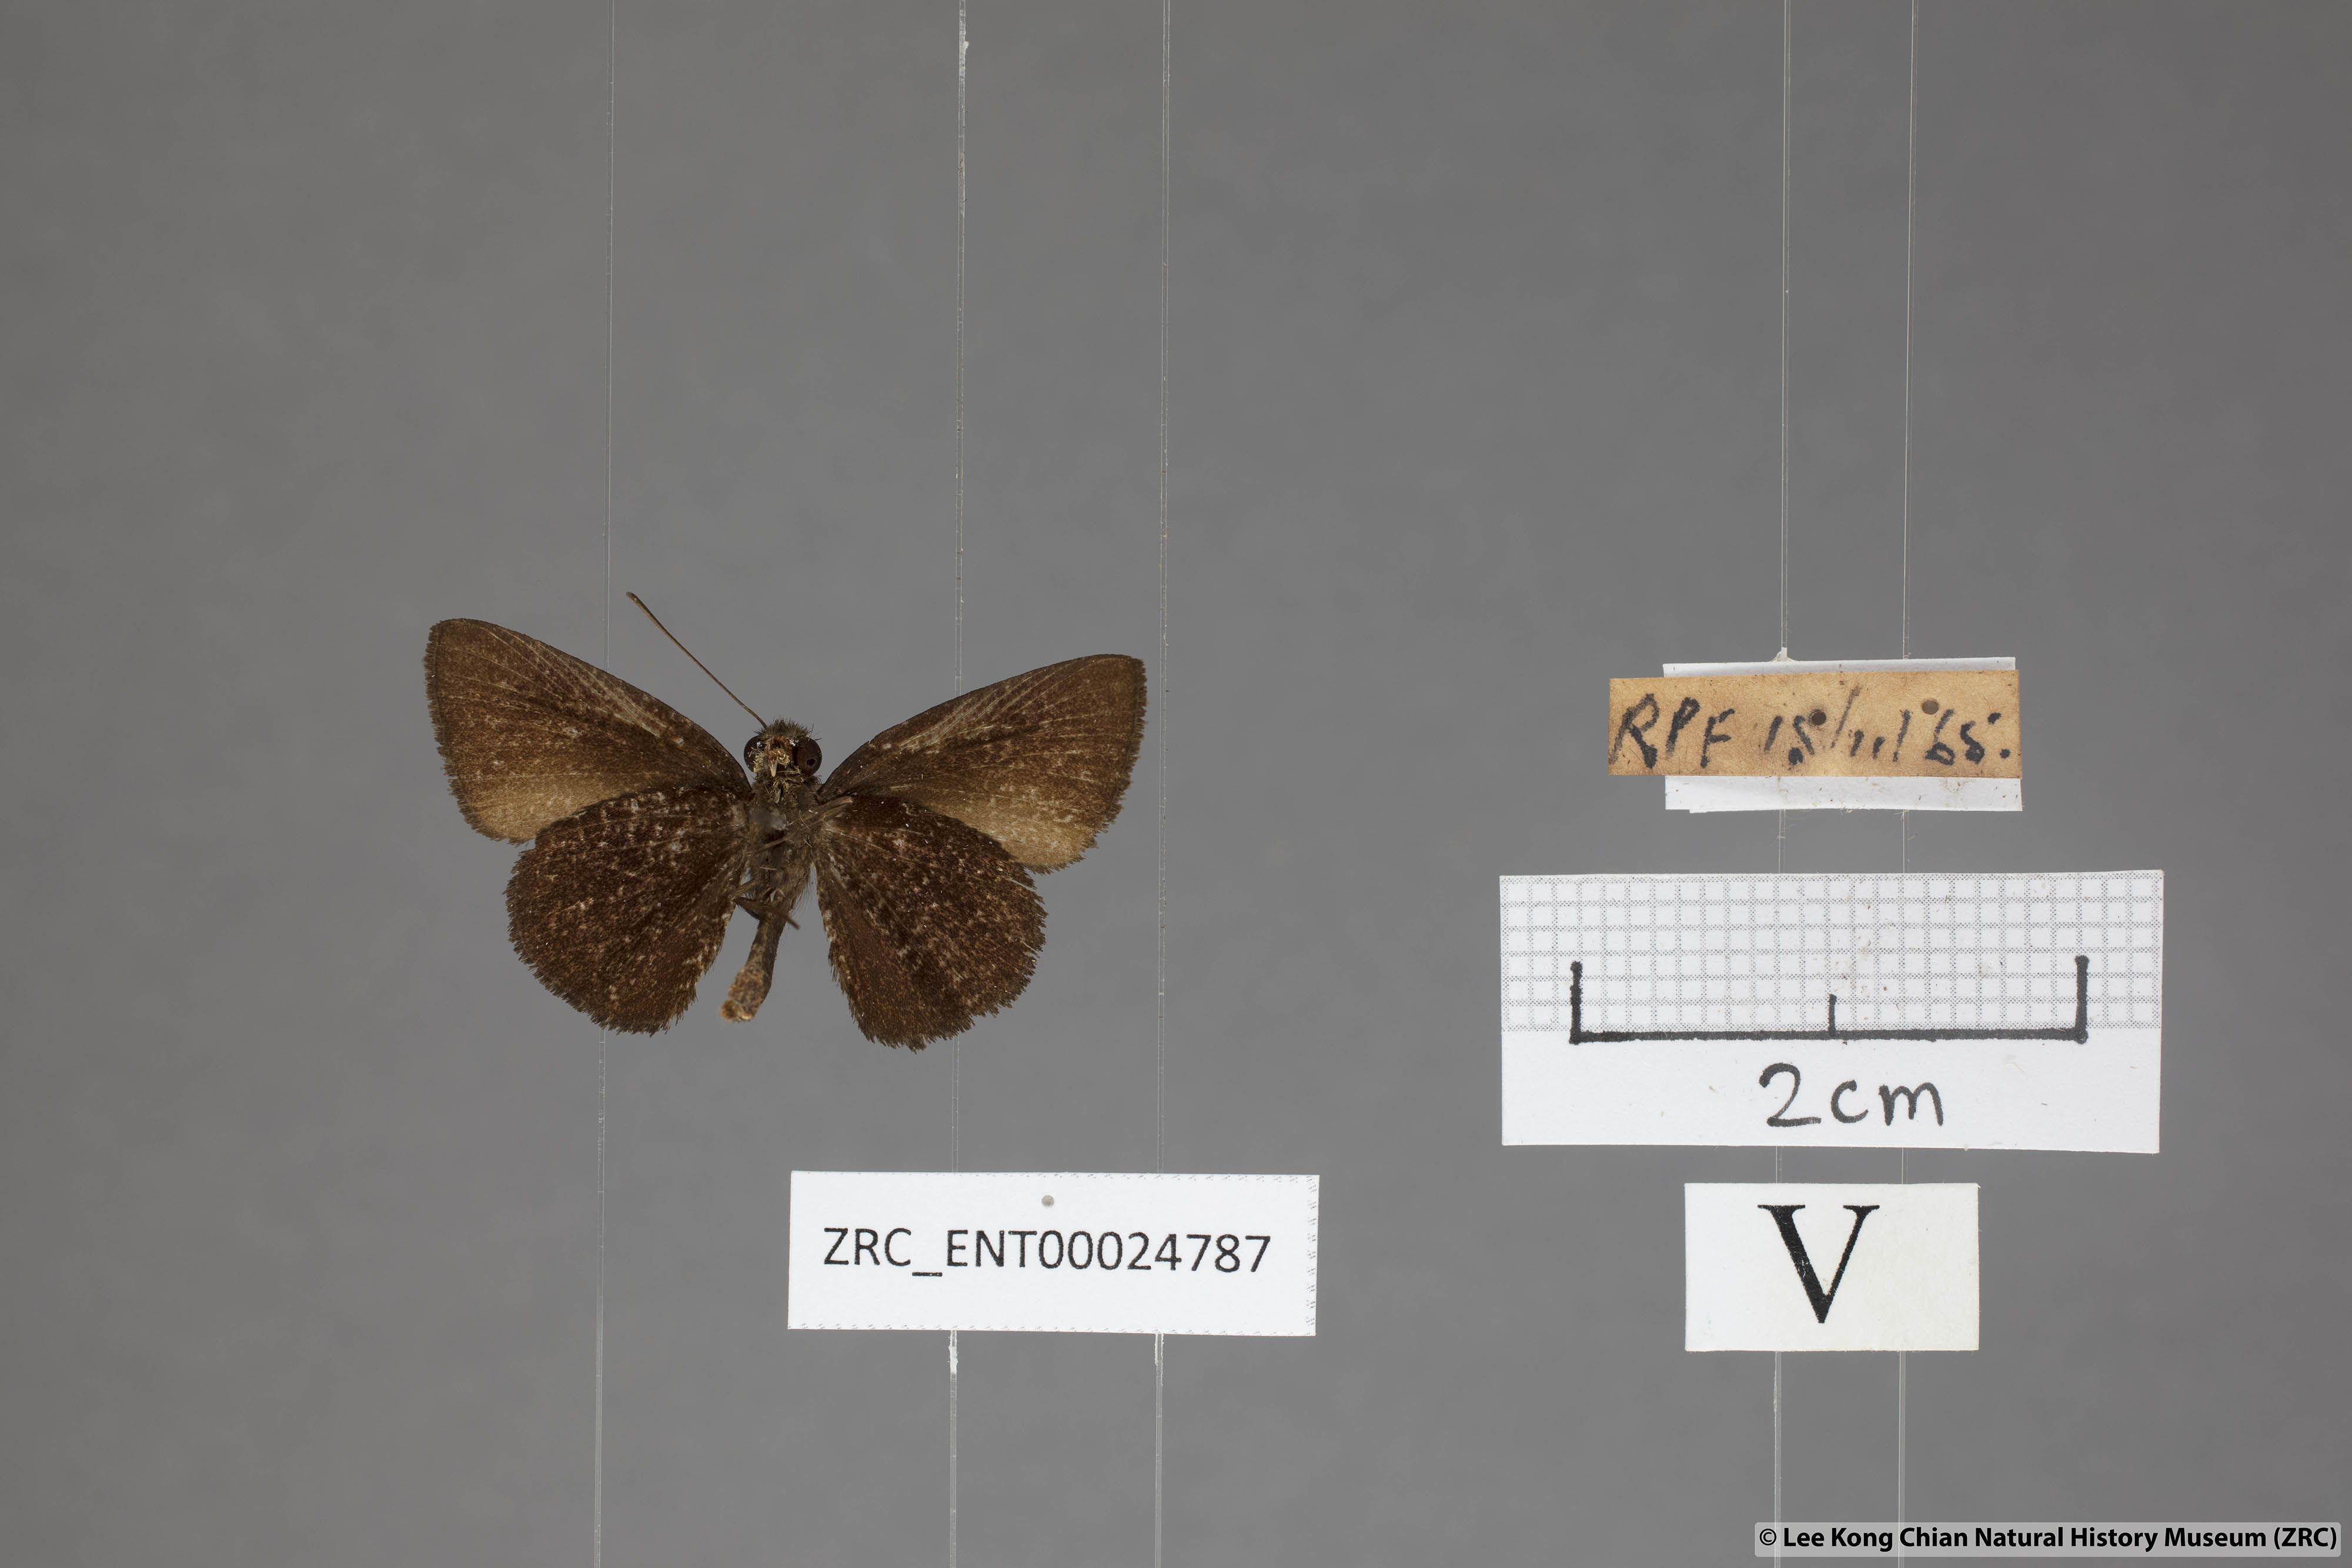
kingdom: Animalia
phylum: Arthropoda
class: Insecta
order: Lepidoptera
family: Hesperiidae
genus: Iambrix
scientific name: Iambrix
